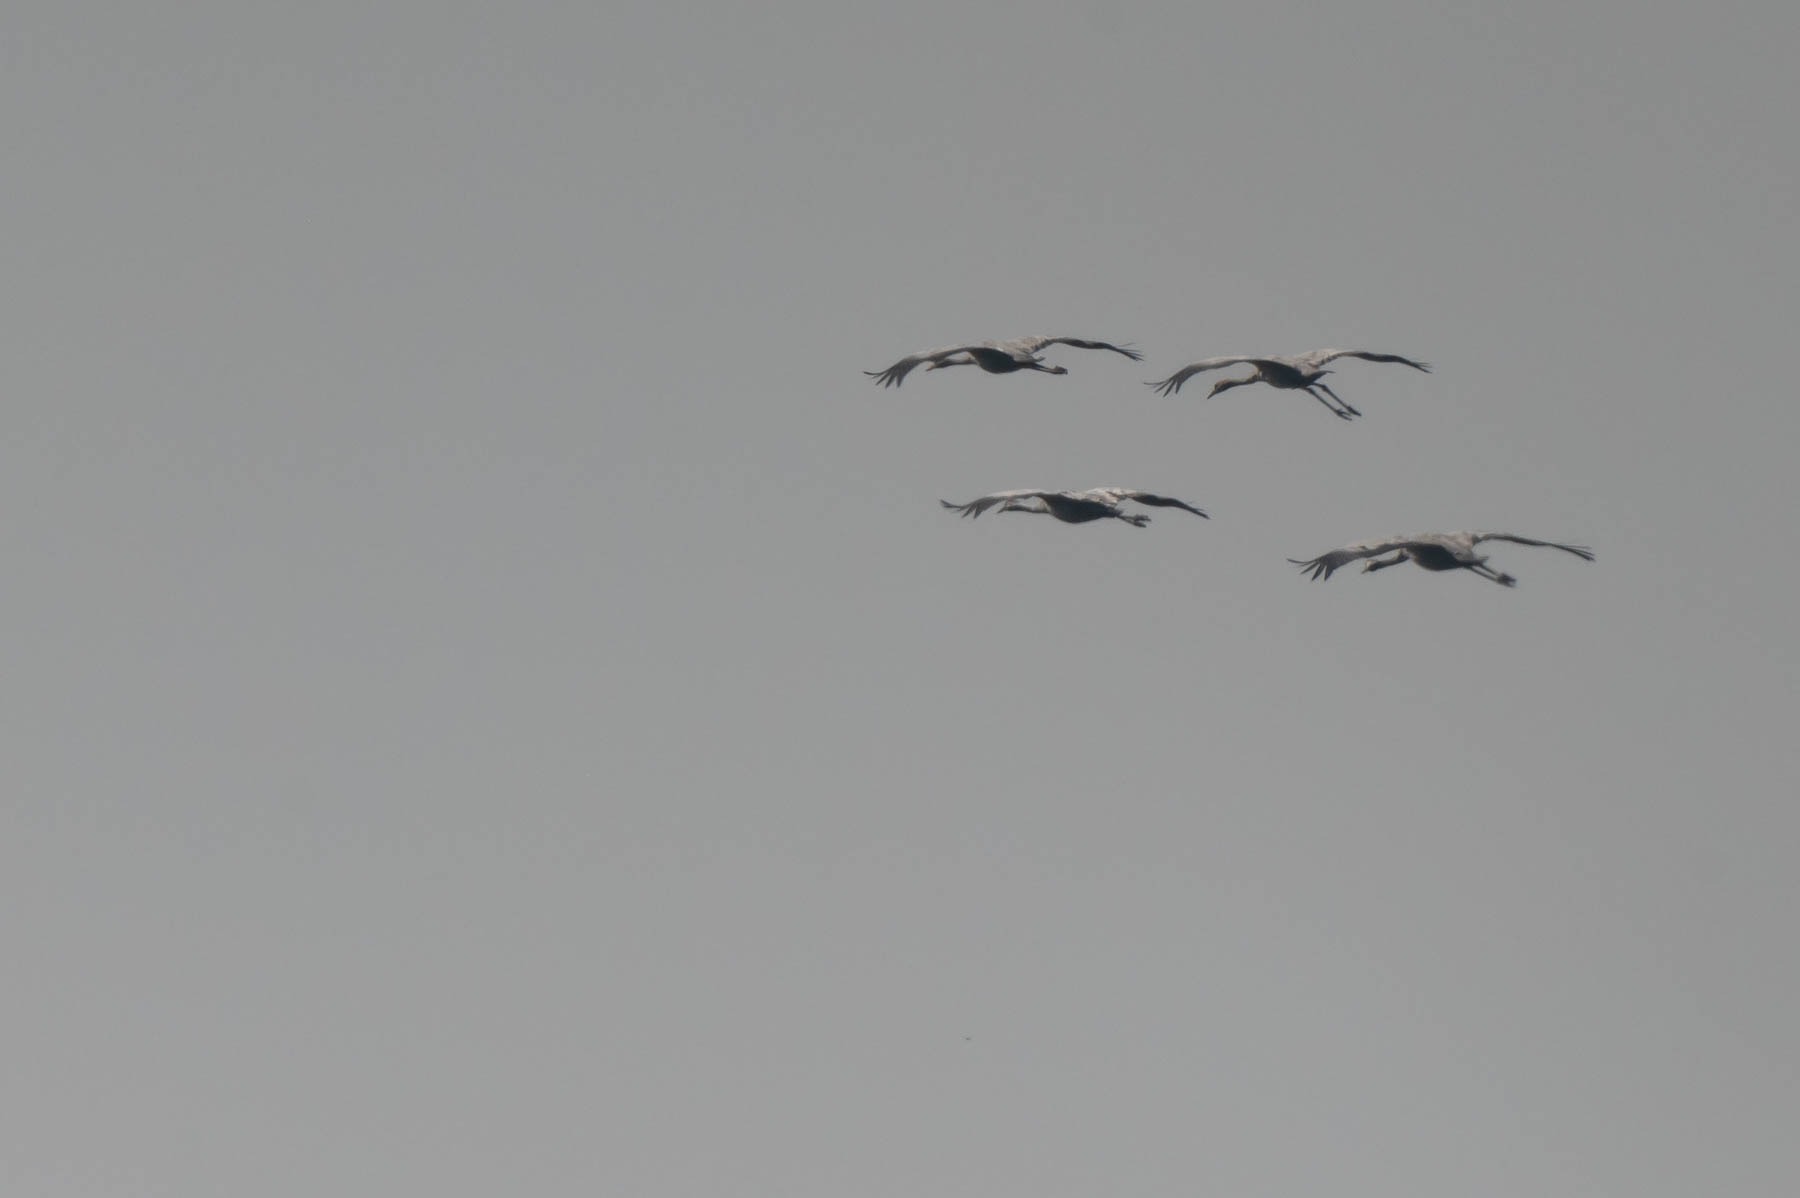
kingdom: Animalia
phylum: Chordata
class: Aves
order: Gruiformes
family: Gruidae
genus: Grus
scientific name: Grus grus
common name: Trane
